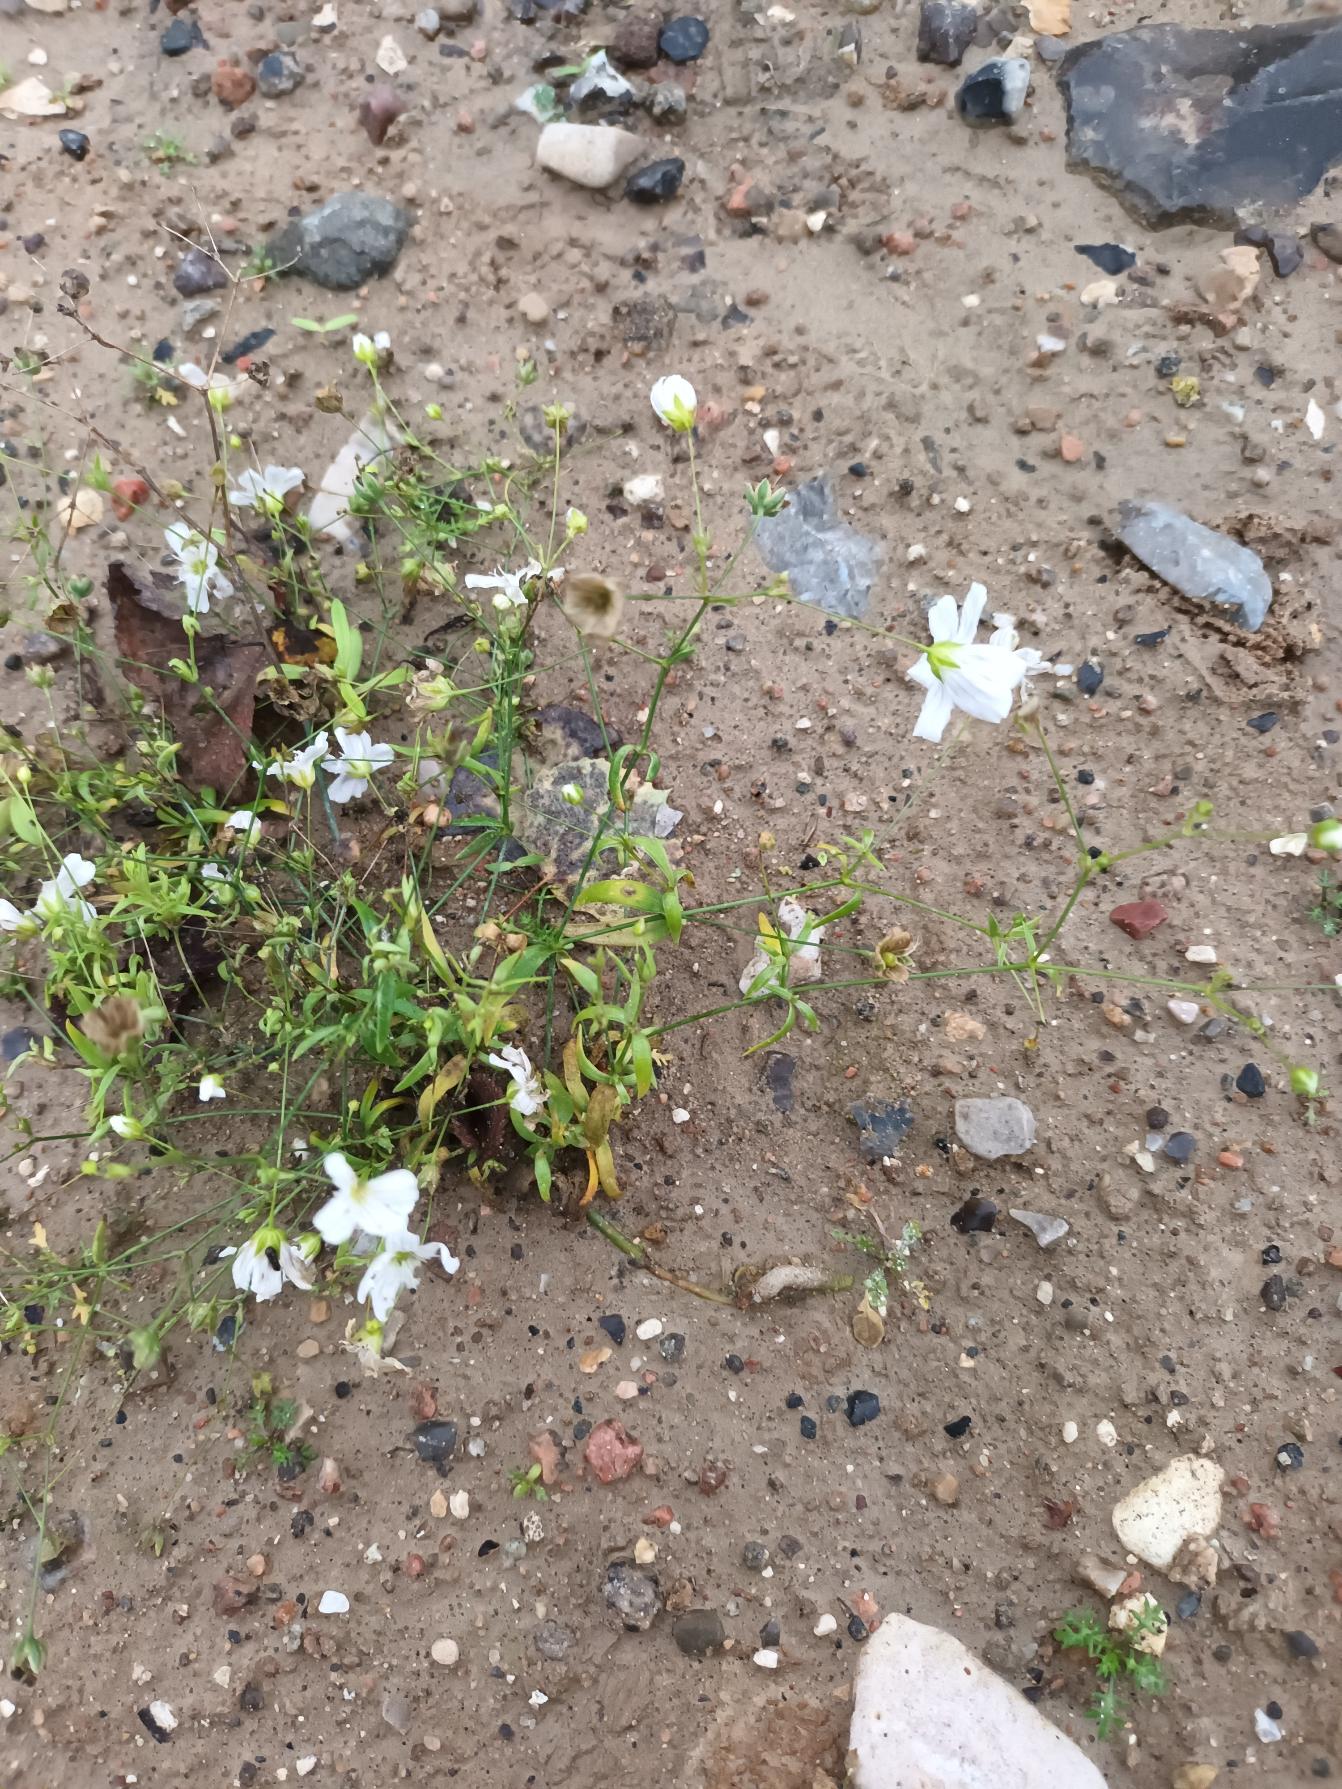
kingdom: Plantae
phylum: Tracheophyta
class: Magnoliopsida
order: Caryophyllales
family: Caryophyllaceae
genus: Gypsophila
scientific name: Gypsophila elegans
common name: Enårig brudeslør
